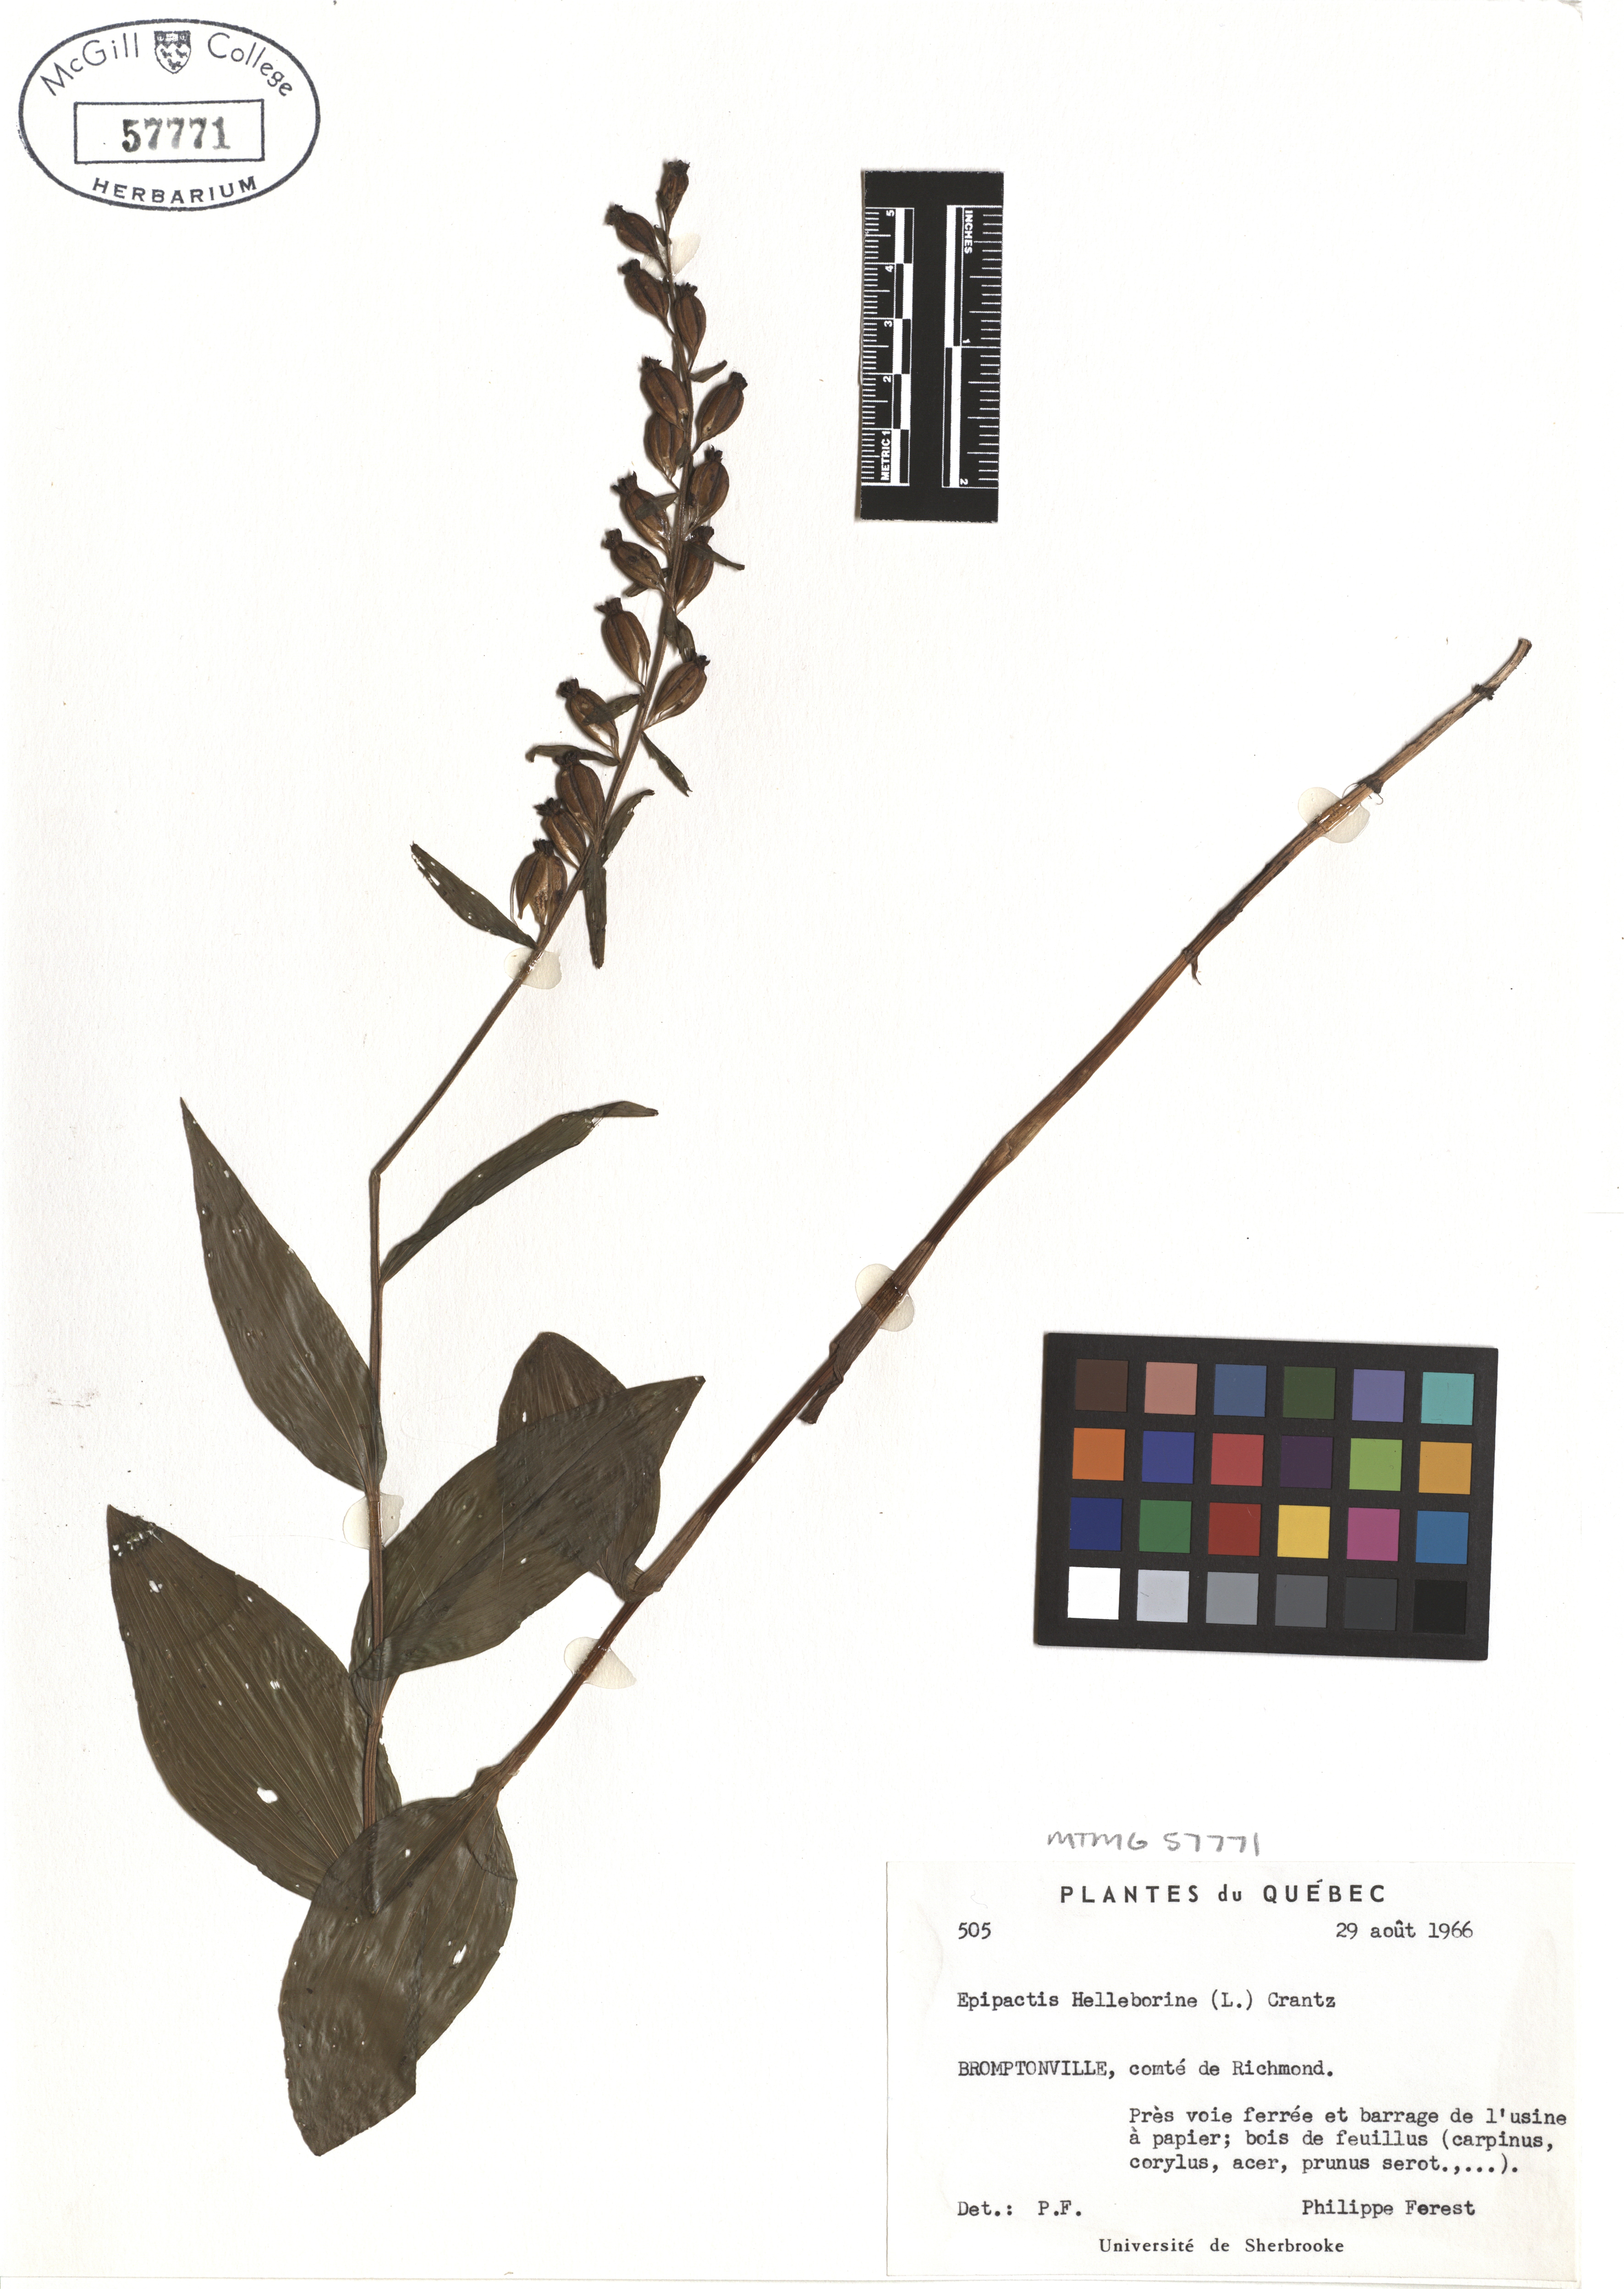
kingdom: Plantae
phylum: Tracheophyta
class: Liliopsida
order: Asparagales
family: Orchidaceae
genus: Epipactis
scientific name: Epipactis helleborine
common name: Broad-leaved helleborine
